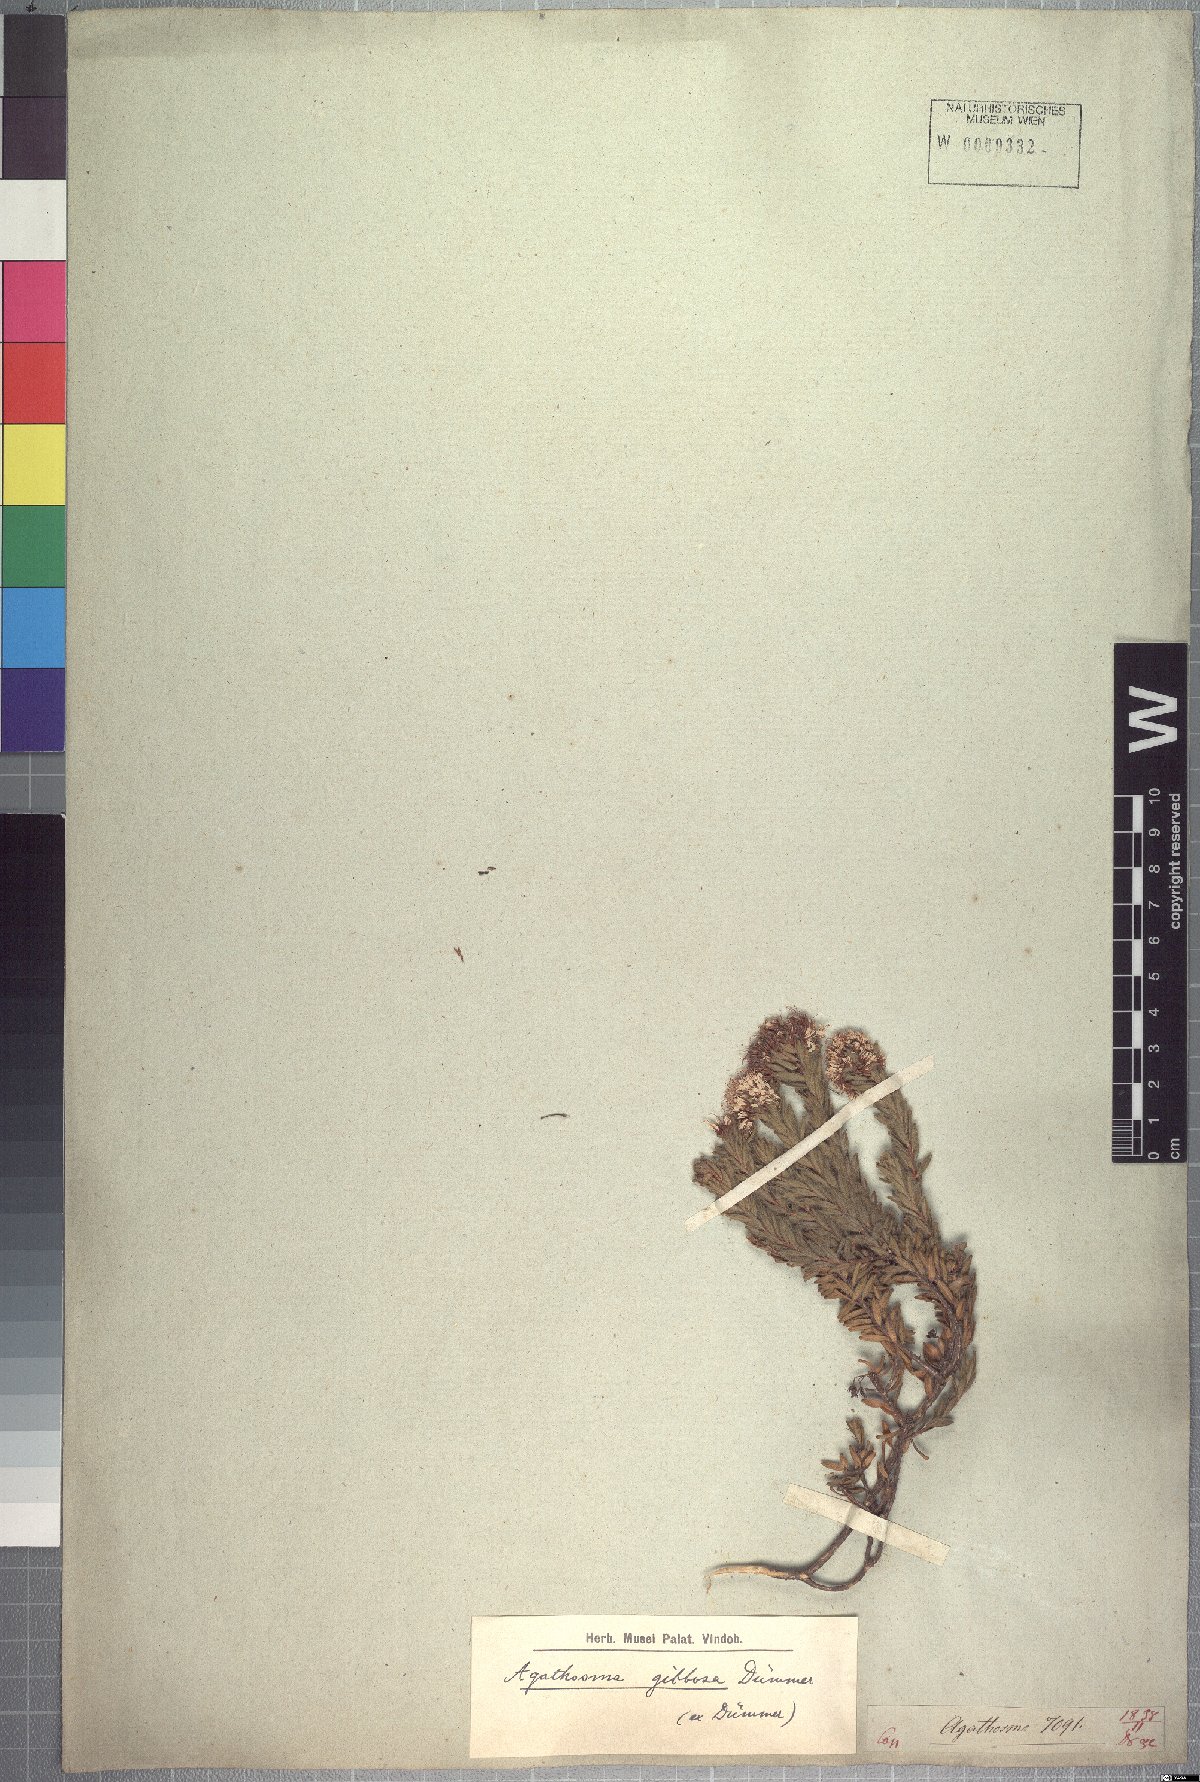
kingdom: Plantae
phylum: Tracheophyta
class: Magnoliopsida
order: Sapindales
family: Rutaceae
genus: Agathosma
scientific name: Agathosma serpyllacea
